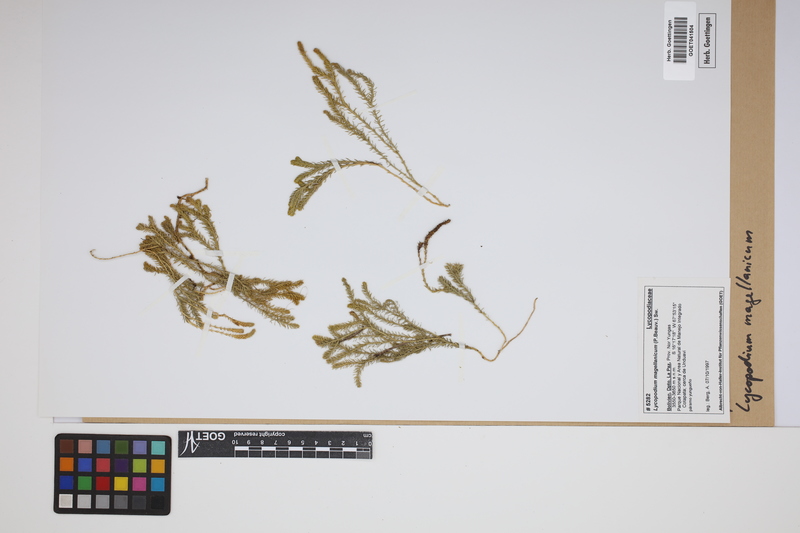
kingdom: Plantae
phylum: Tracheophyta
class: Lycopodiopsida
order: Lycopodiales
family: Lycopodiaceae
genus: Austrolycopodium
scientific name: Austrolycopodium magellanicum
